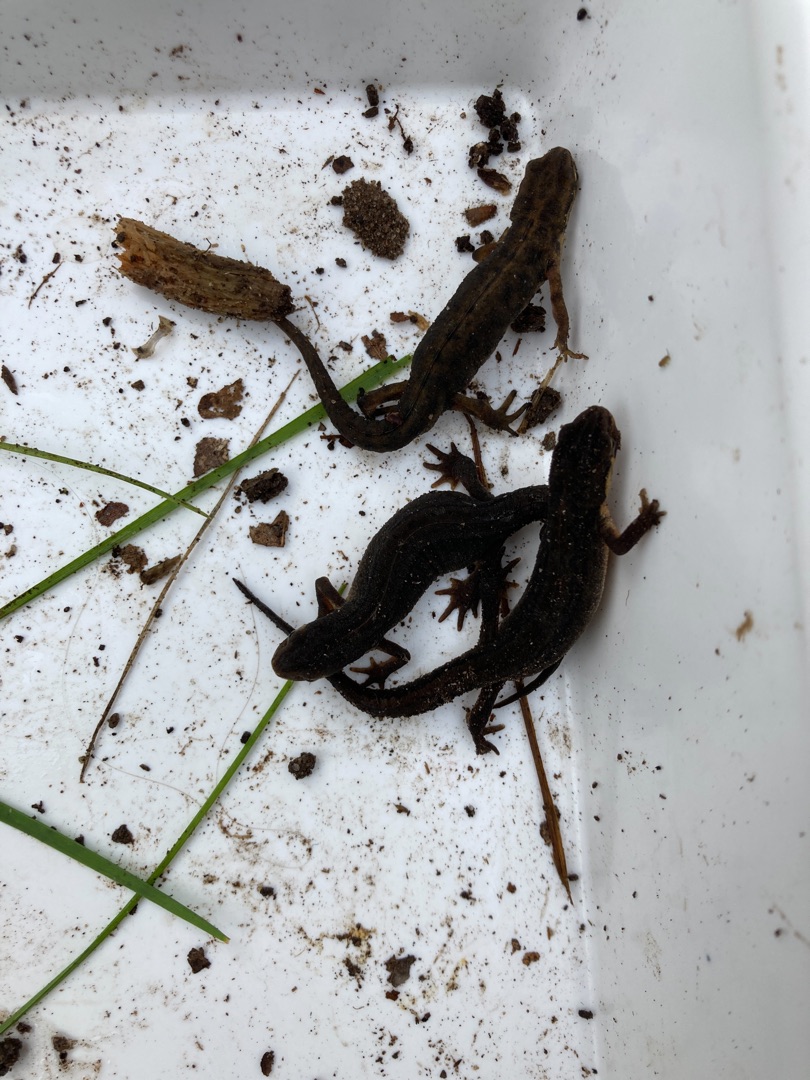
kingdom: Animalia
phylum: Chordata
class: Amphibia
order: Caudata
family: Salamandridae
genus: Lissotriton
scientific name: Lissotriton vulgaris
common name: Lille vandsalamander
